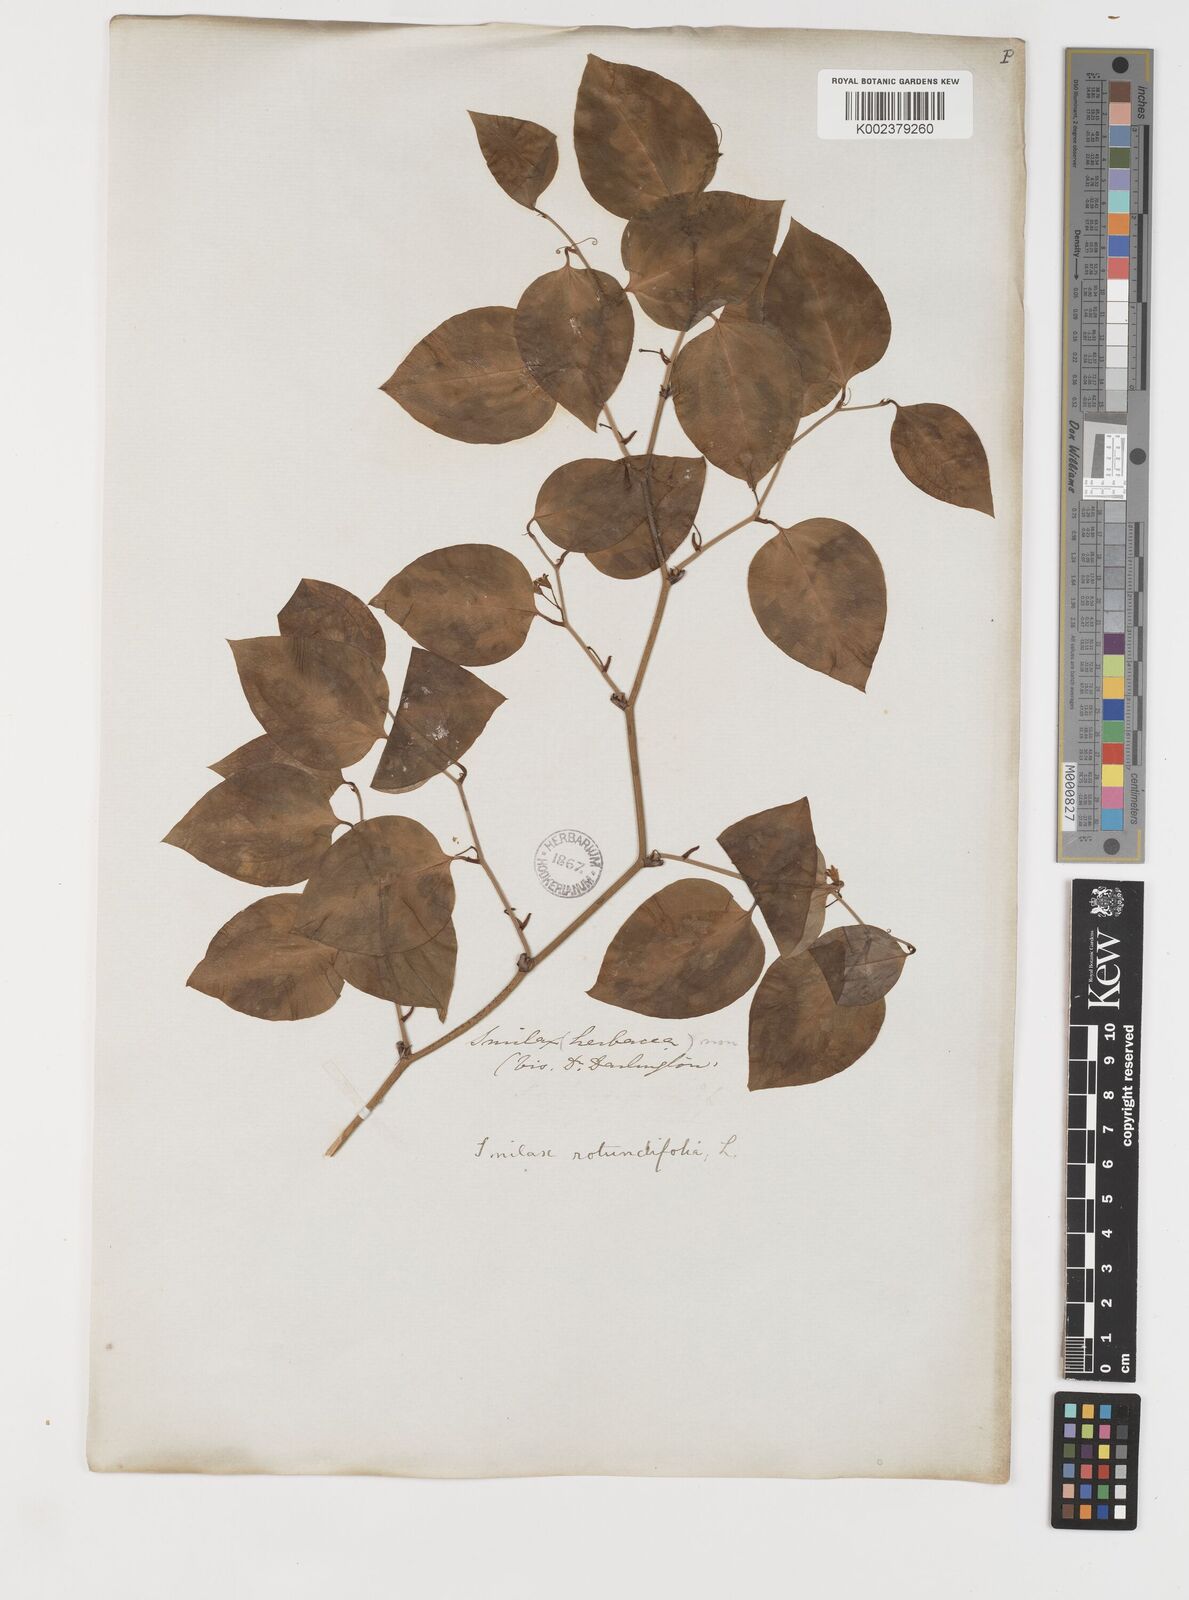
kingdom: Plantae
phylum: Tracheophyta
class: Liliopsida
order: Liliales
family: Smilacaceae
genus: Smilax
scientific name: Smilax rotundifolia
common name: Bullbriar
